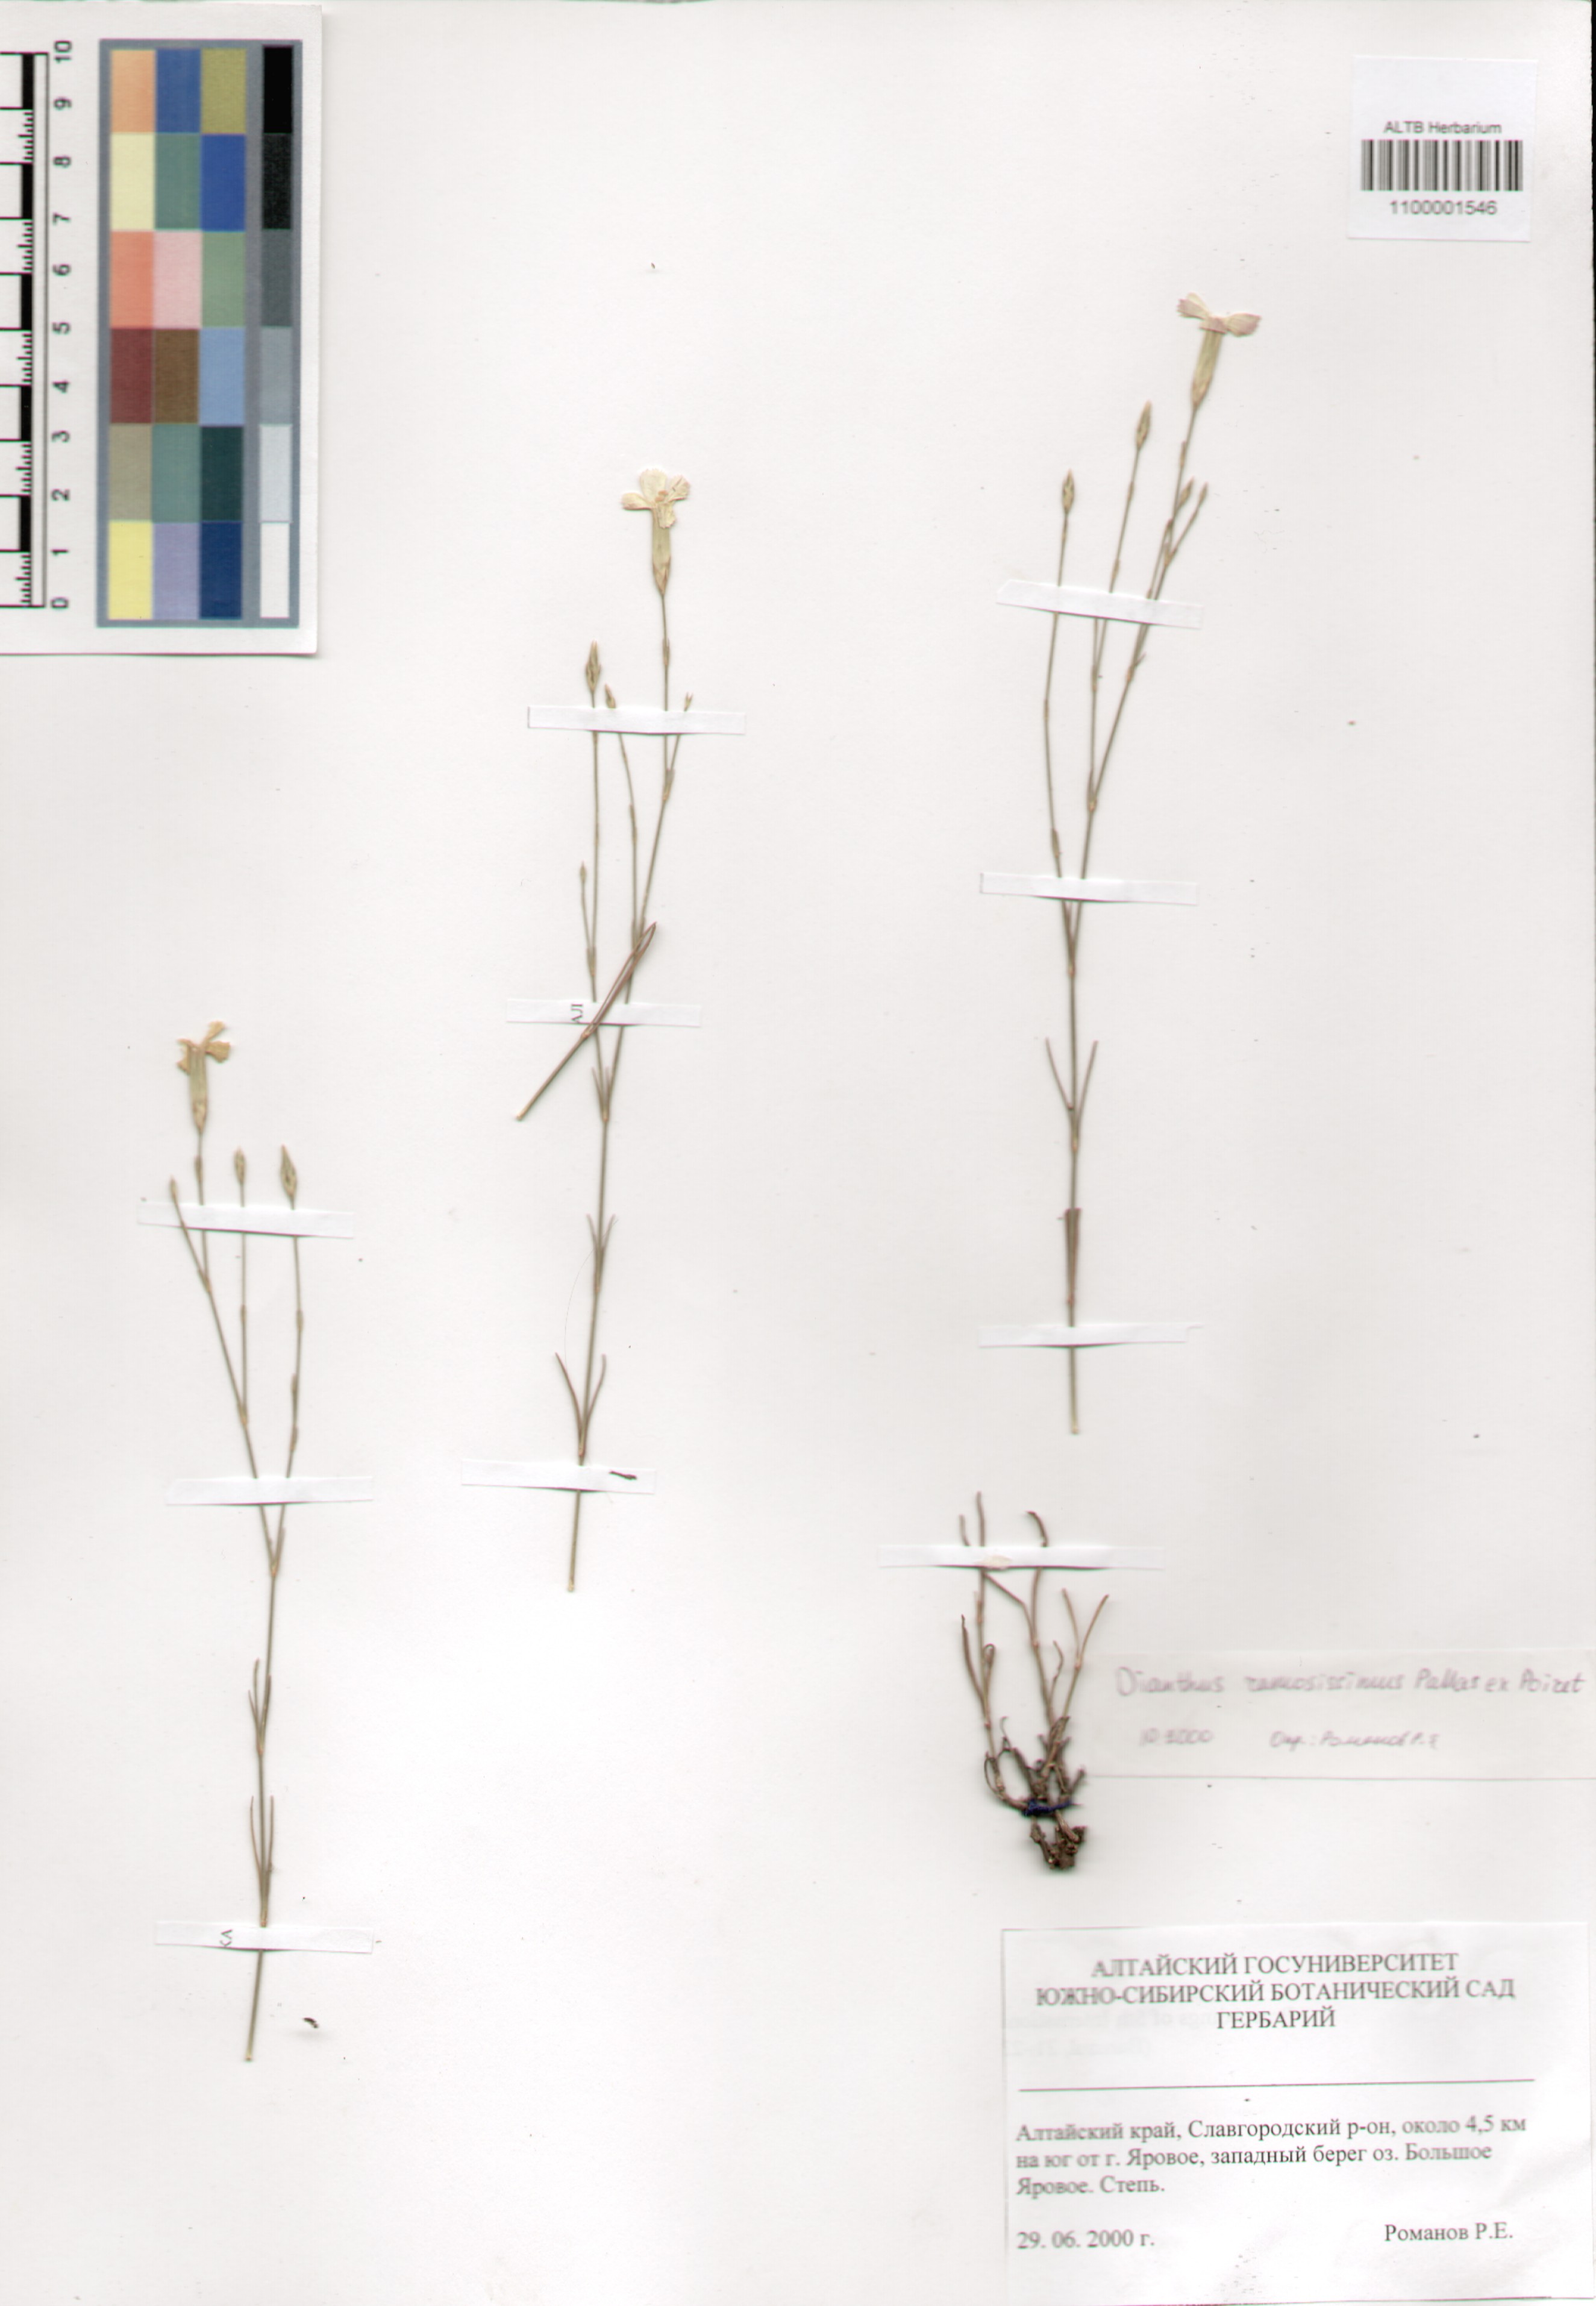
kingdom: Plantae
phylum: Tracheophyta
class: Magnoliopsida
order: Caryophyllales
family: Caryophyllaceae
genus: Dianthus
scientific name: Dianthus ramosissimus
